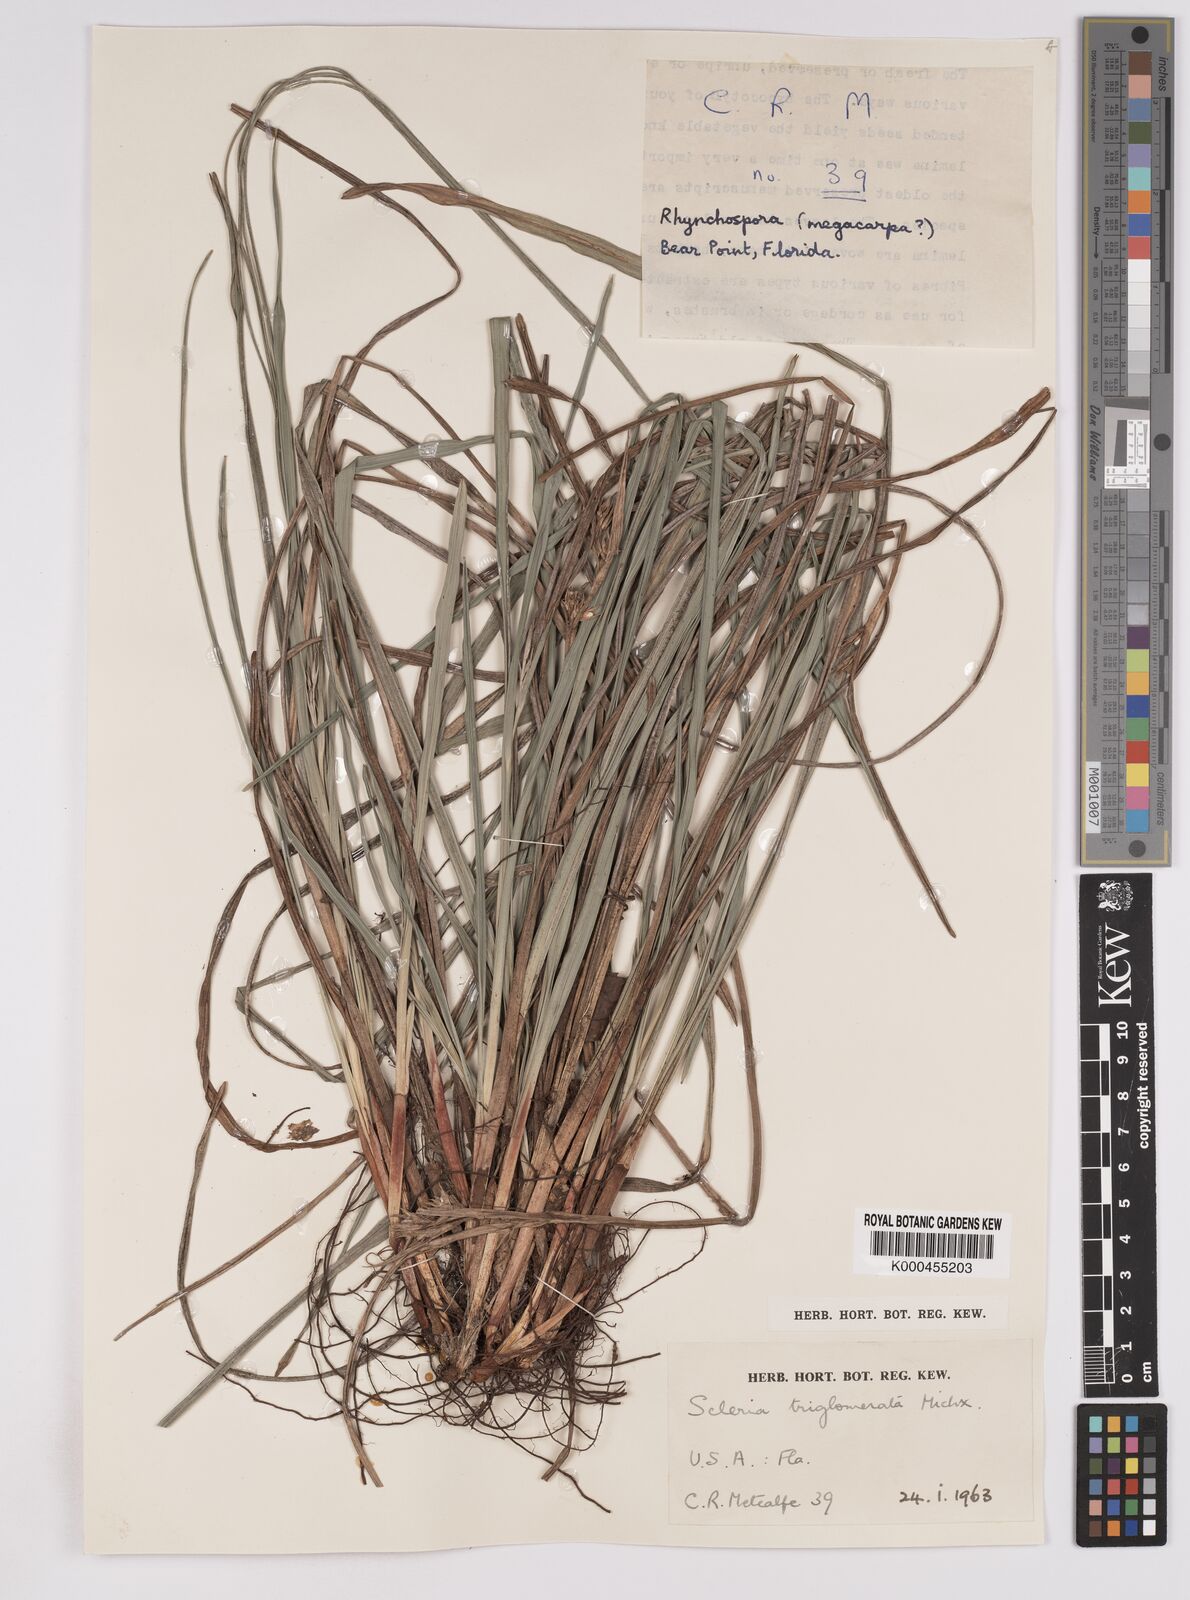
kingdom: Plantae
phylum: Tracheophyta
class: Liliopsida
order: Poales
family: Cyperaceae
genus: Scleria
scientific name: Scleria triglomerata
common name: Whip nutrush
